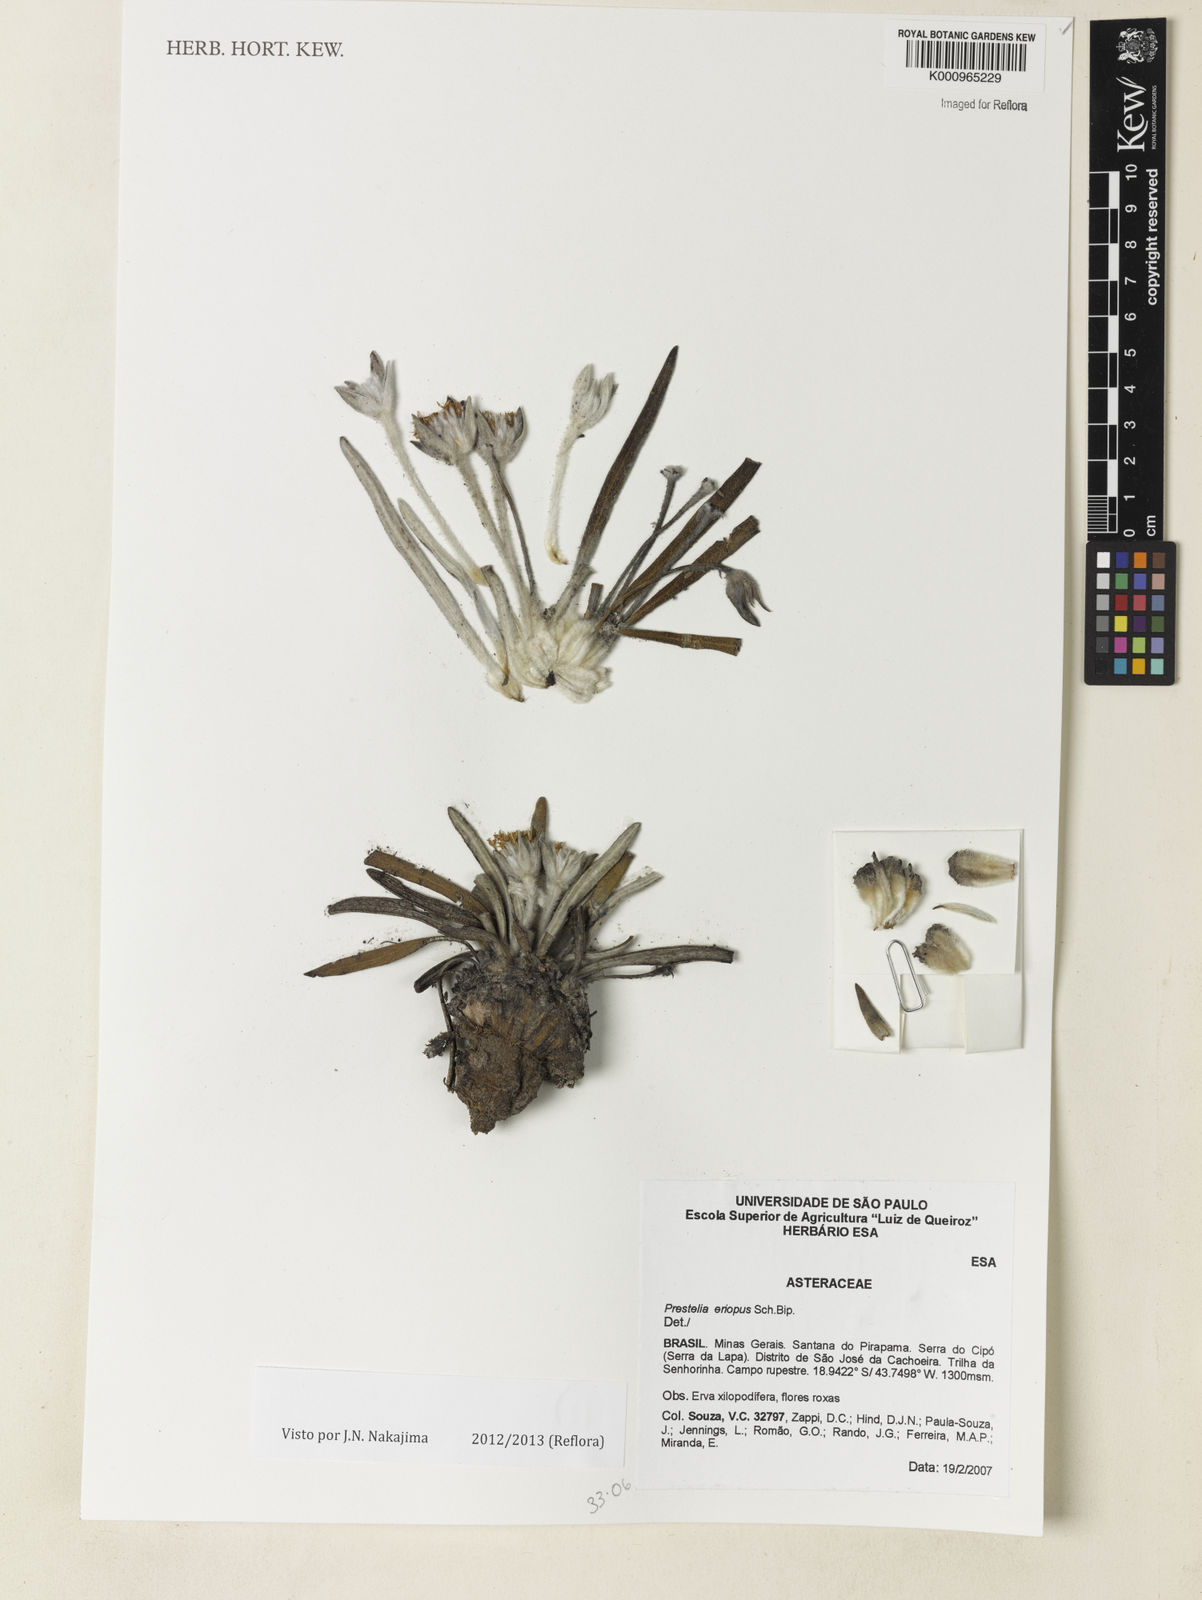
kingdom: Plantae
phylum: Tracheophyta
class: Magnoliopsida
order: Asterales
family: Asteraceae
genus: Prestelia
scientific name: Prestelia eriopus
